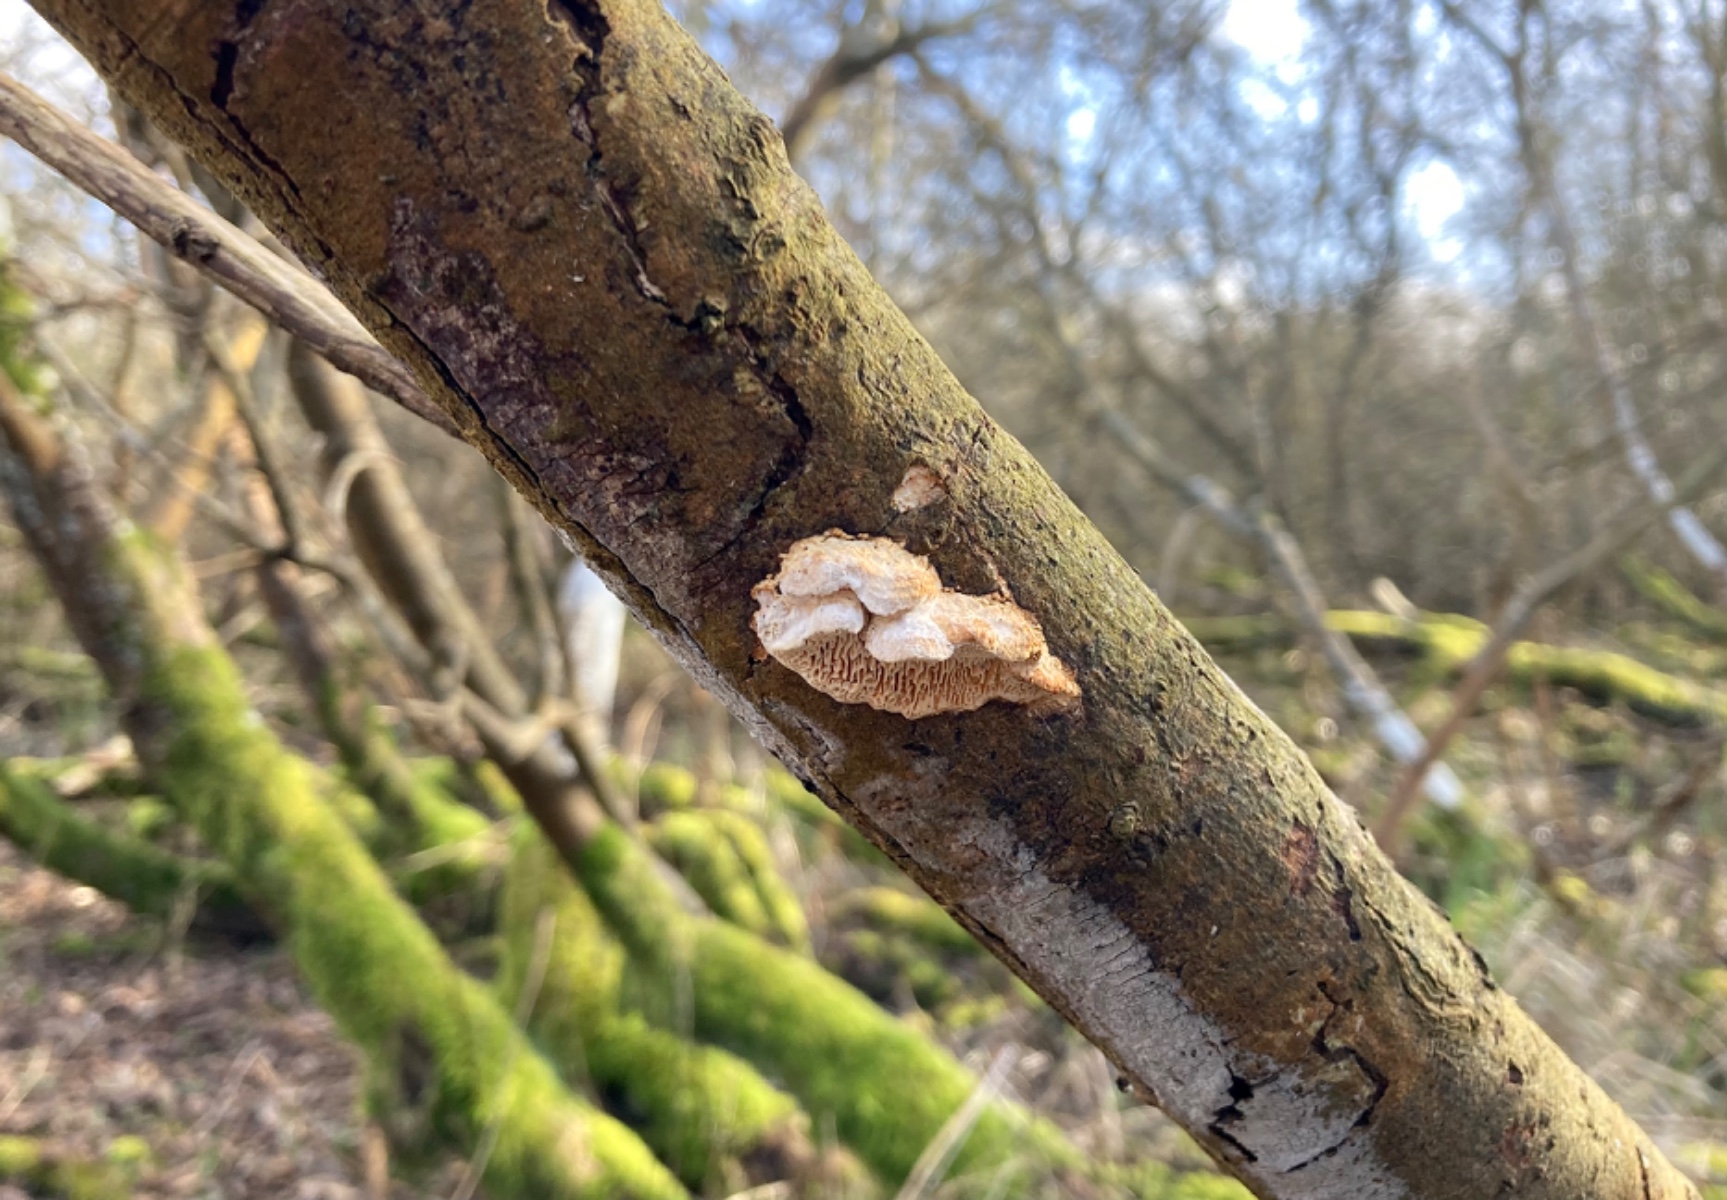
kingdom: Fungi
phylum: Basidiomycota
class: Agaricomycetes
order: Polyporales
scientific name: Polyporales
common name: poresvampordenen
